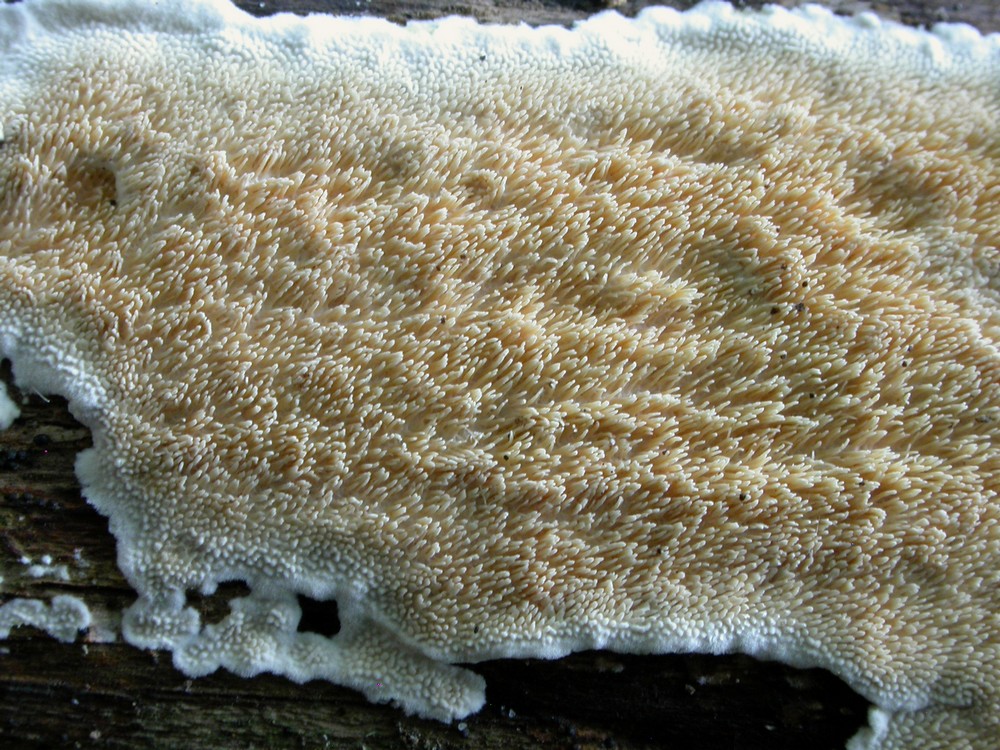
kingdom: Fungi
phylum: Basidiomycota
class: Agaricomycetes
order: Polyporales
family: Steccherinaceae
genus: Steccherinum
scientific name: Steccherinum ochraceum
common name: almindelig skønpig
